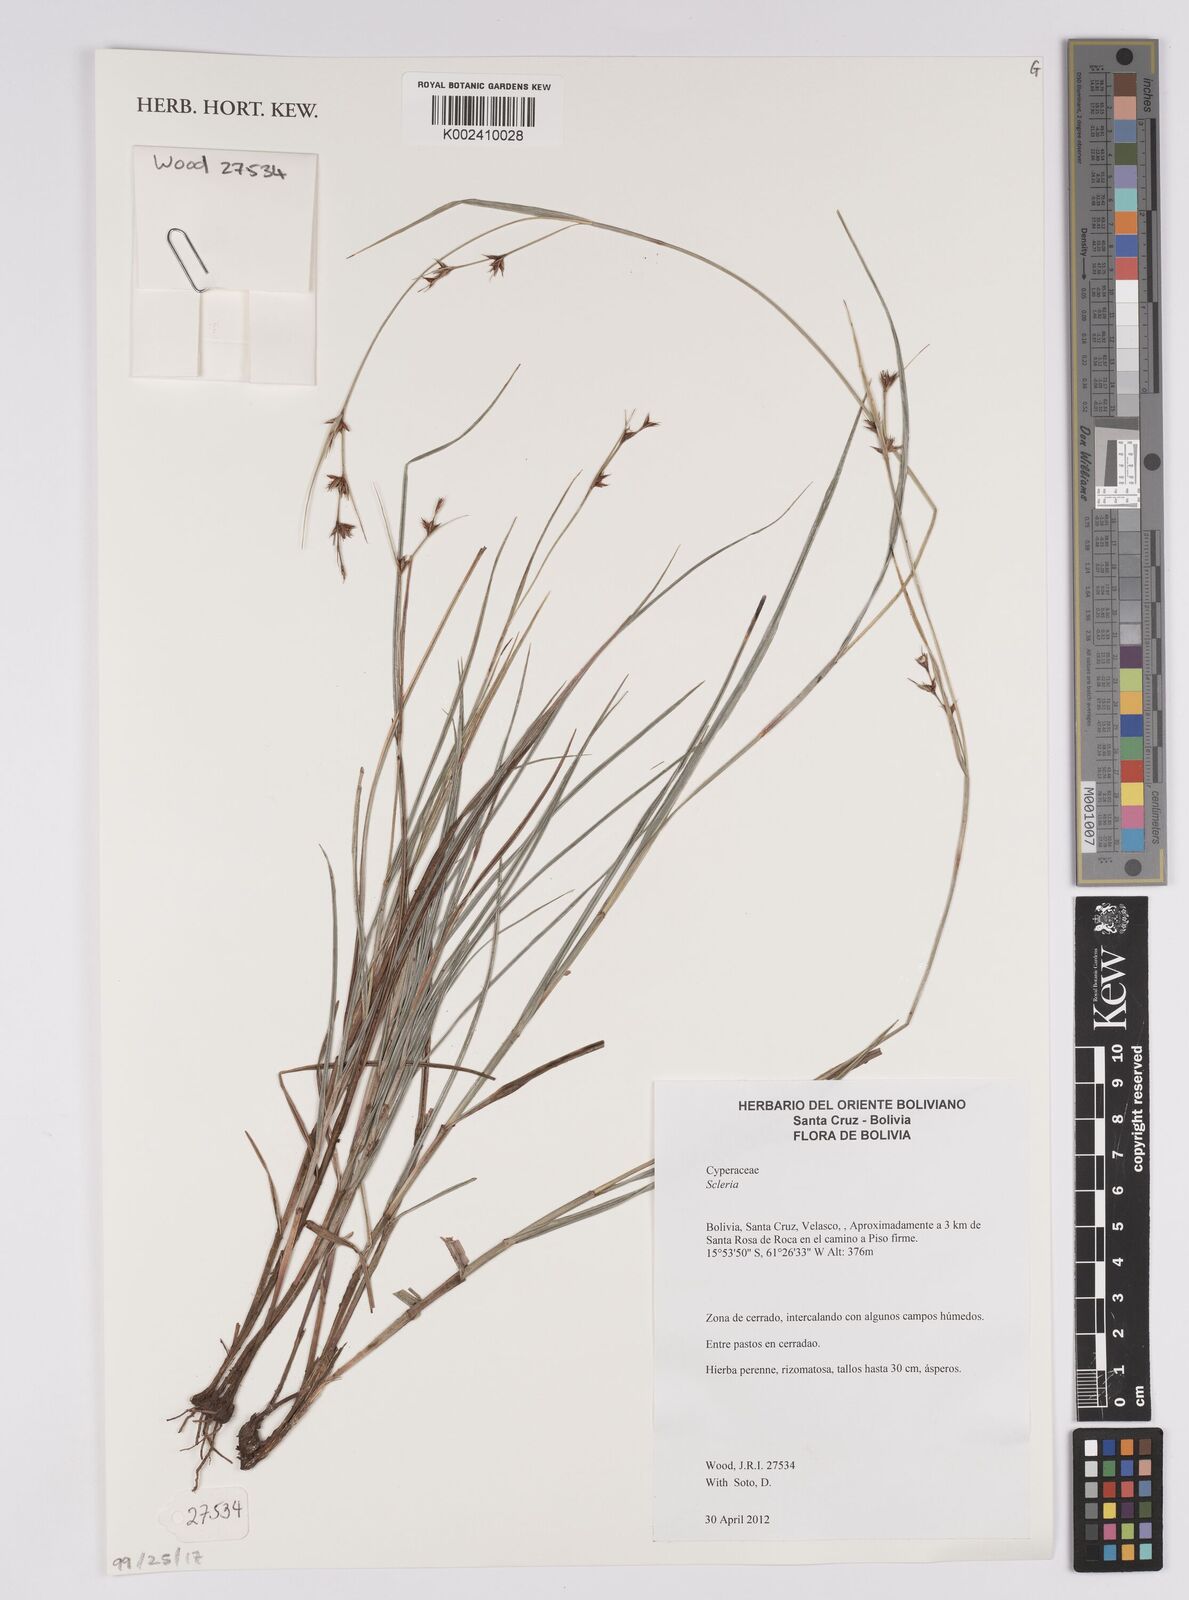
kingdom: Plantae
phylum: Tracheophyta
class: Liliopsida
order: Poales
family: Cyperaceae
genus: Scleria
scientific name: Scleria
